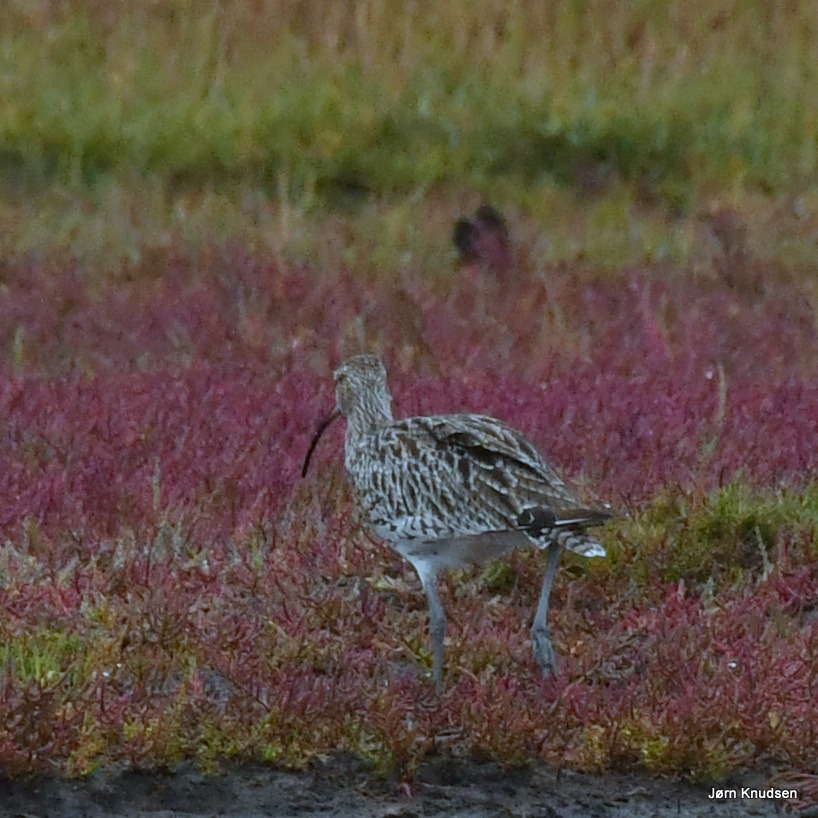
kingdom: Animalia
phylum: Chordata
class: Aves
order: Charadriiformes
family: Scolopacidae
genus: Numenius
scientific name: Numenius arquata
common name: Storspove
